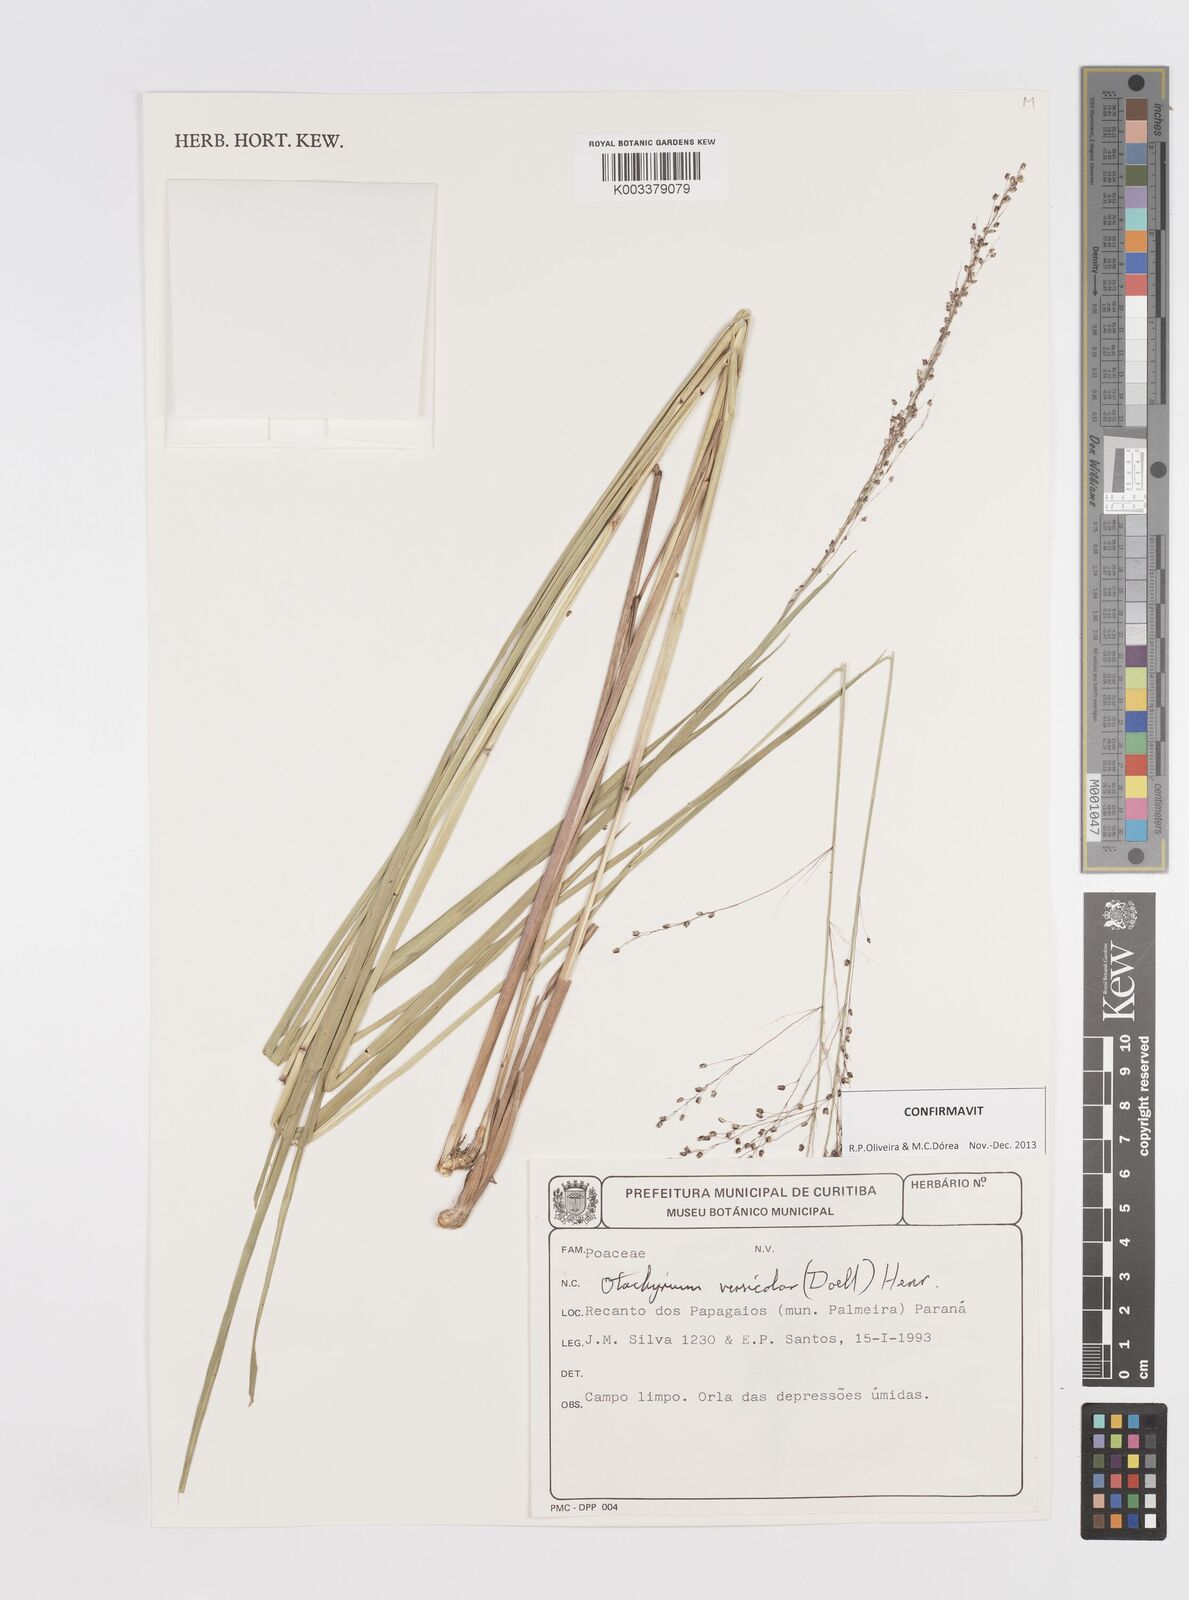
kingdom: Plantae
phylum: Tracheophyta
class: Liliopsida
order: Poales
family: Poaceae
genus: Otachyrium
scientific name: Otachyrium versicolor
